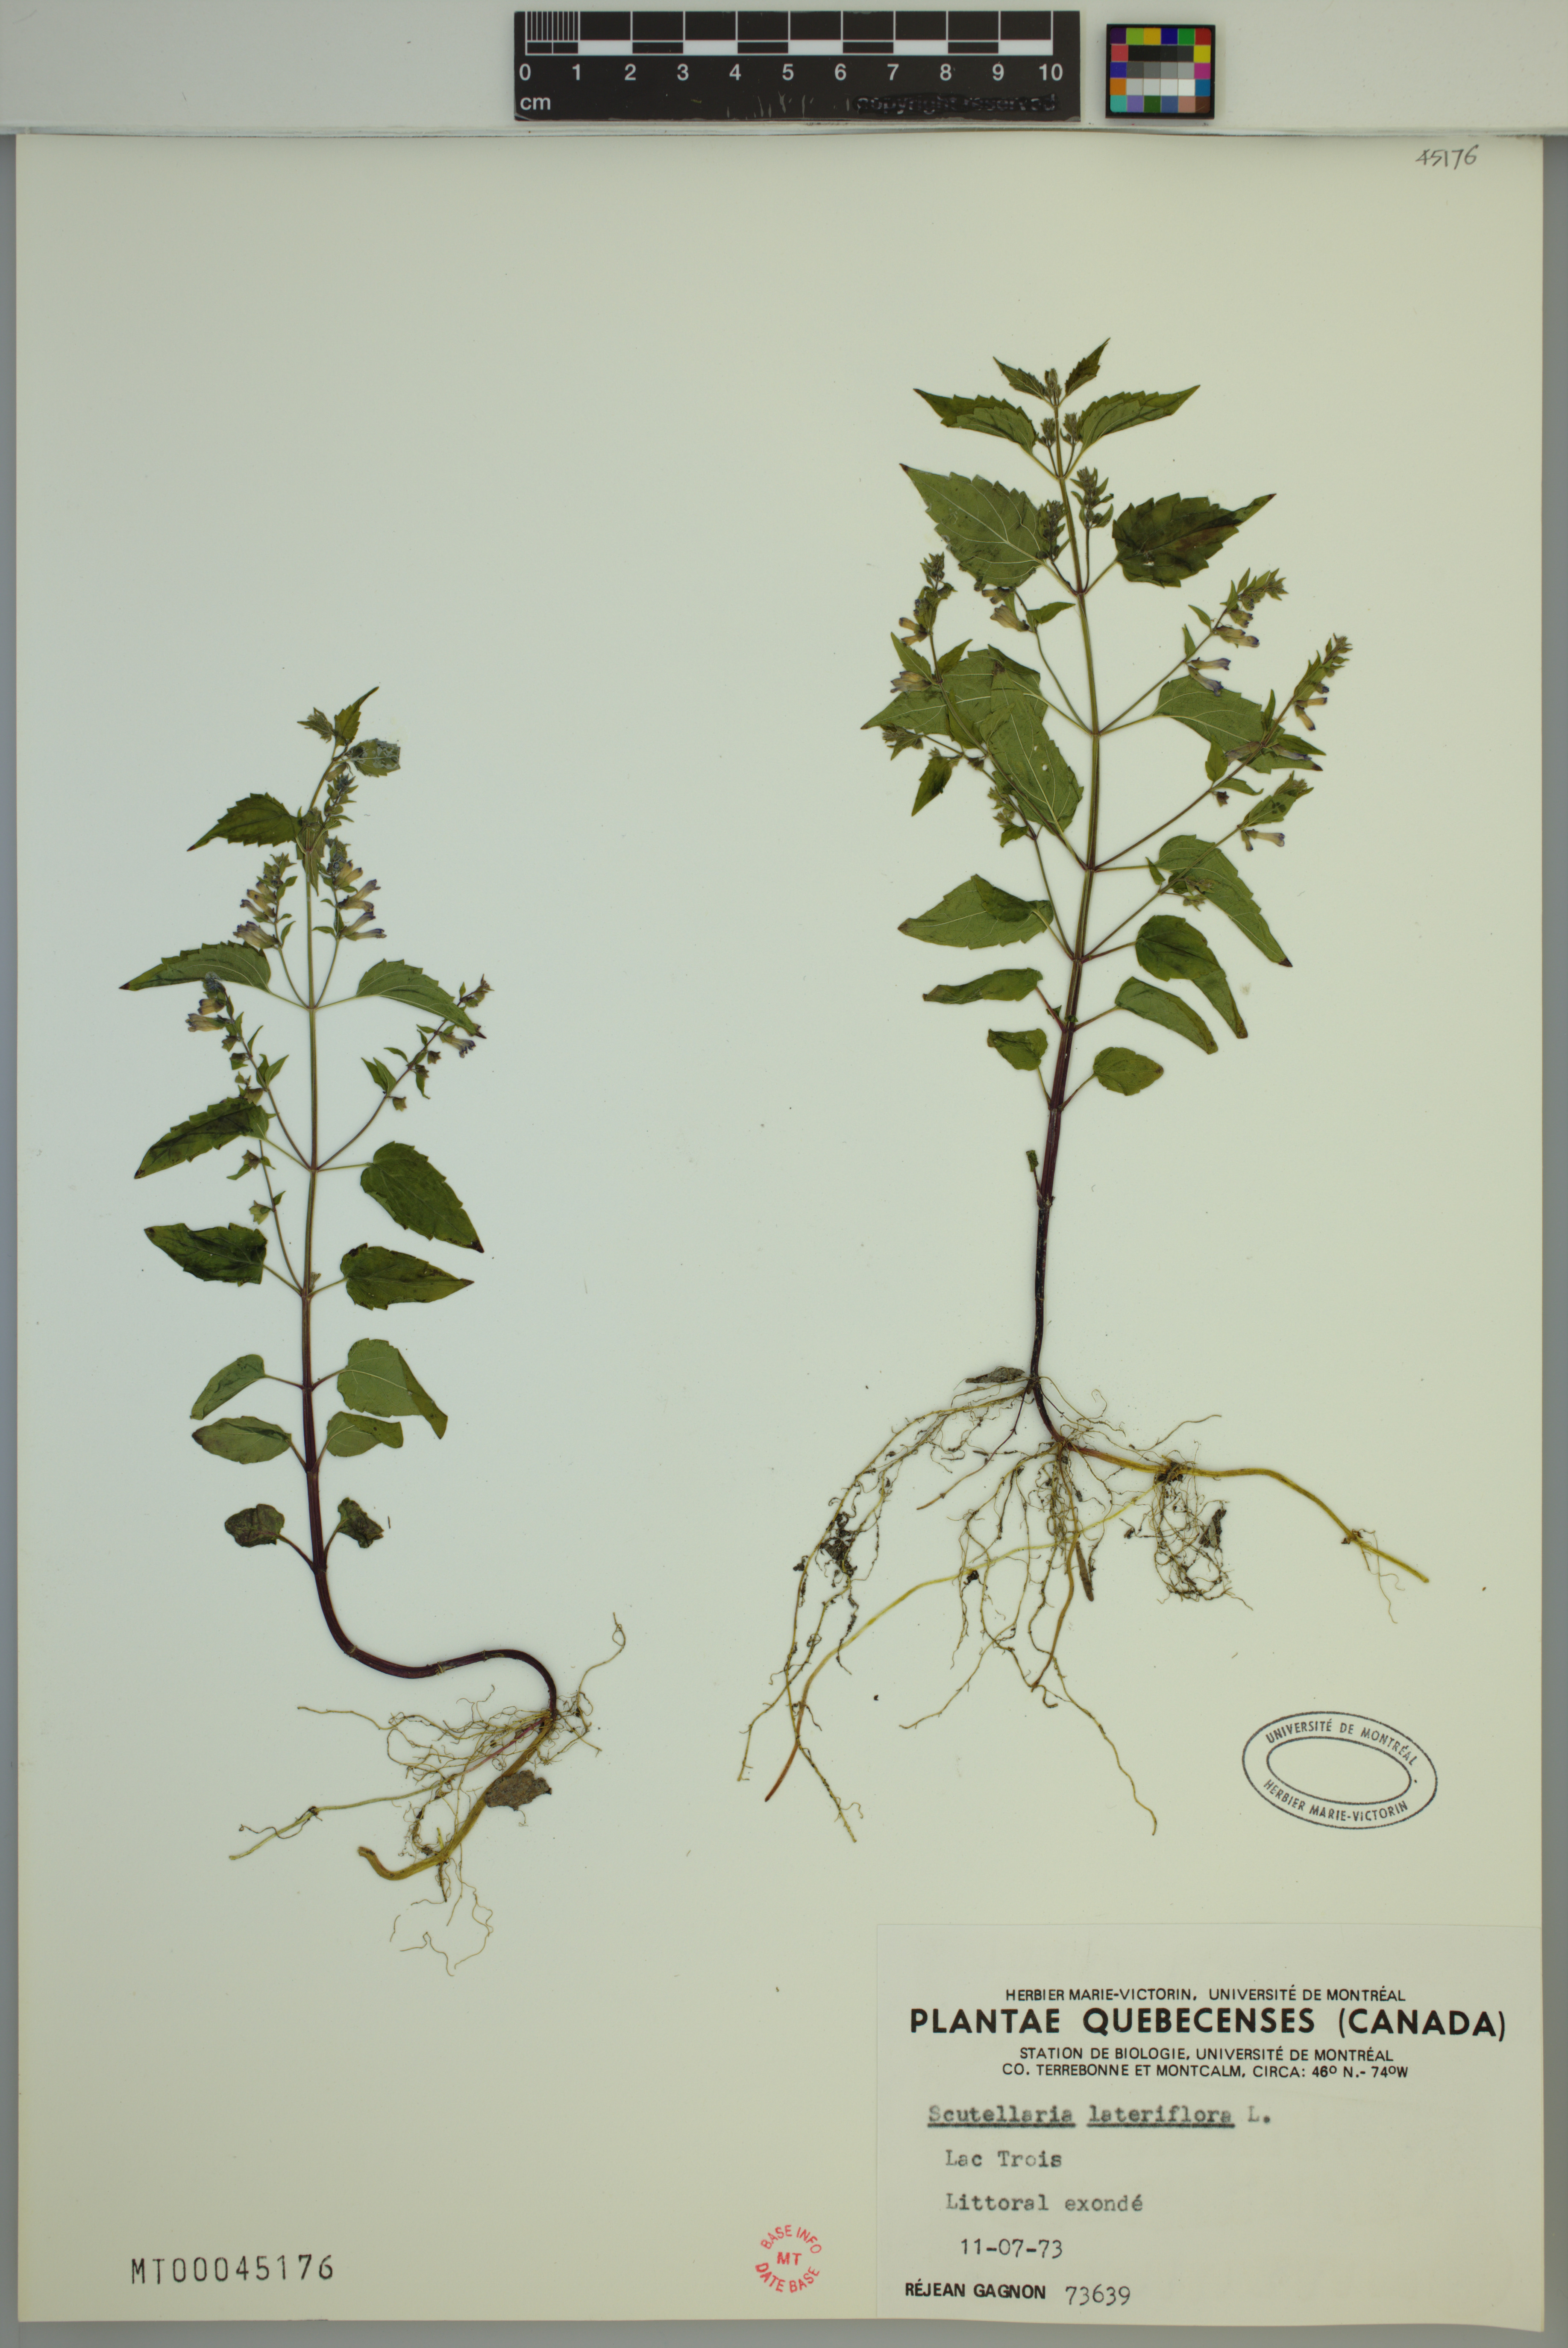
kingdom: Plantae
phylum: Tracheophyta
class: Magnoliopsida
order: Lamiales
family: Lamiaceae
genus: Scutellaria
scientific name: Scutellaria lateriflora
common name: Blue skullcap
